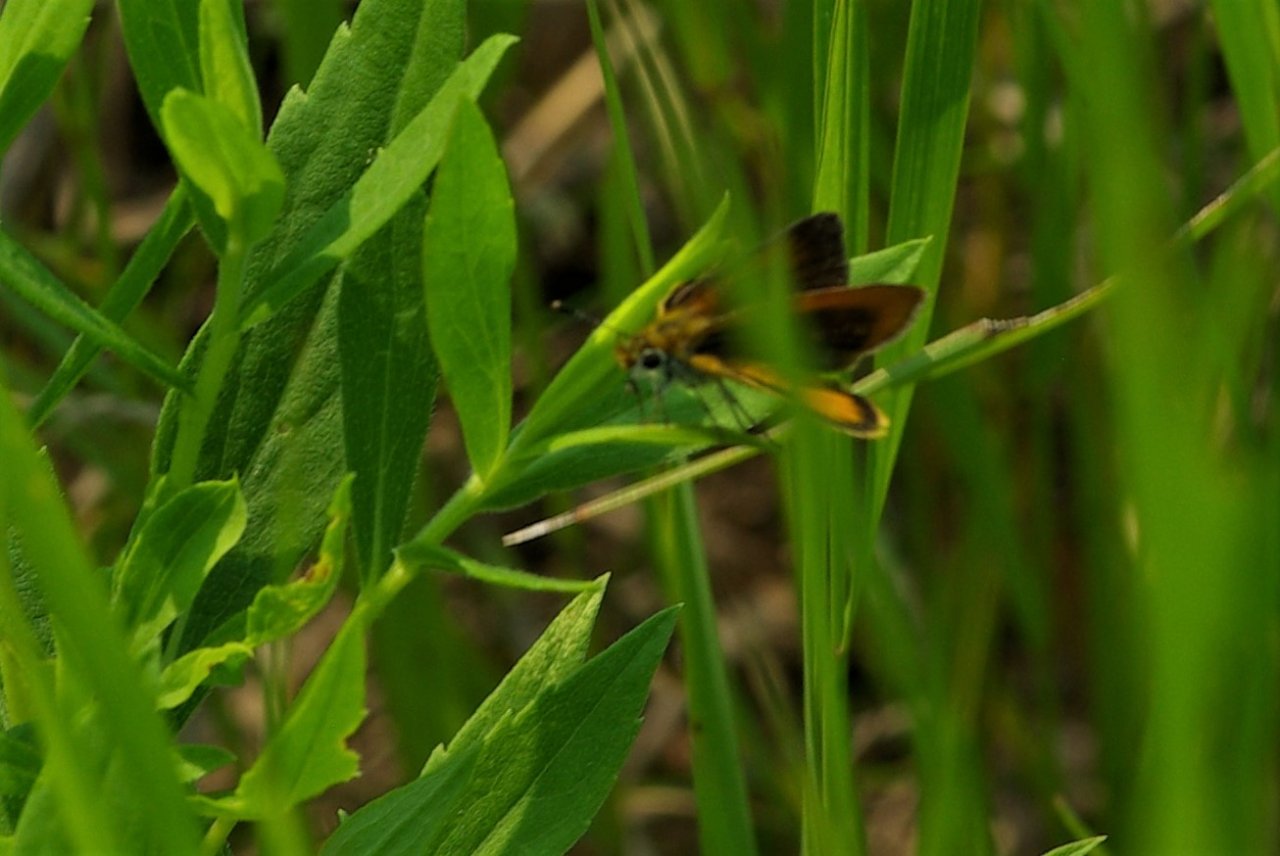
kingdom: Animalia
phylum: Arthropoda
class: Insecta
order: Lepidoptera
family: Hesperiidae
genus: Ancyloxypha
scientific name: Ancyloxypha numitor
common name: Least Skipper
